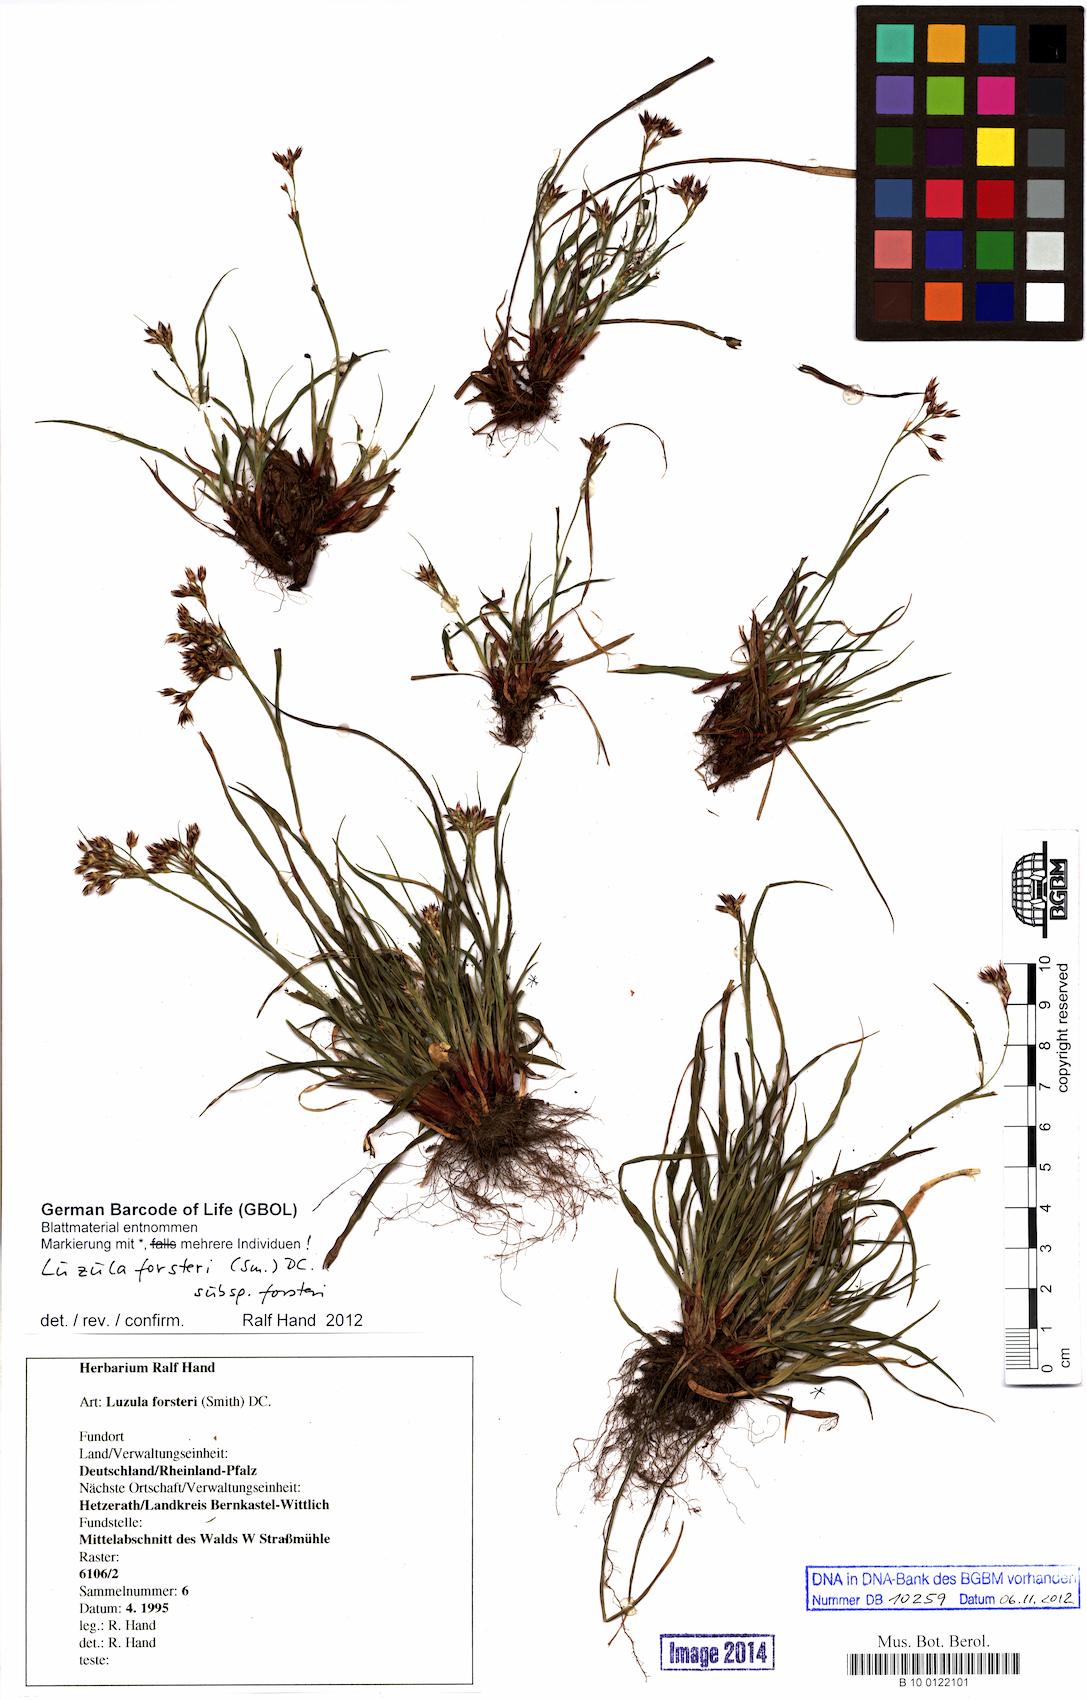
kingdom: Plantae
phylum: Tracheophyta
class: Liliopsida
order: Poales
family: Juncaceae
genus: Luzula
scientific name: Luzula forsteri
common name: Southern wood-rush
